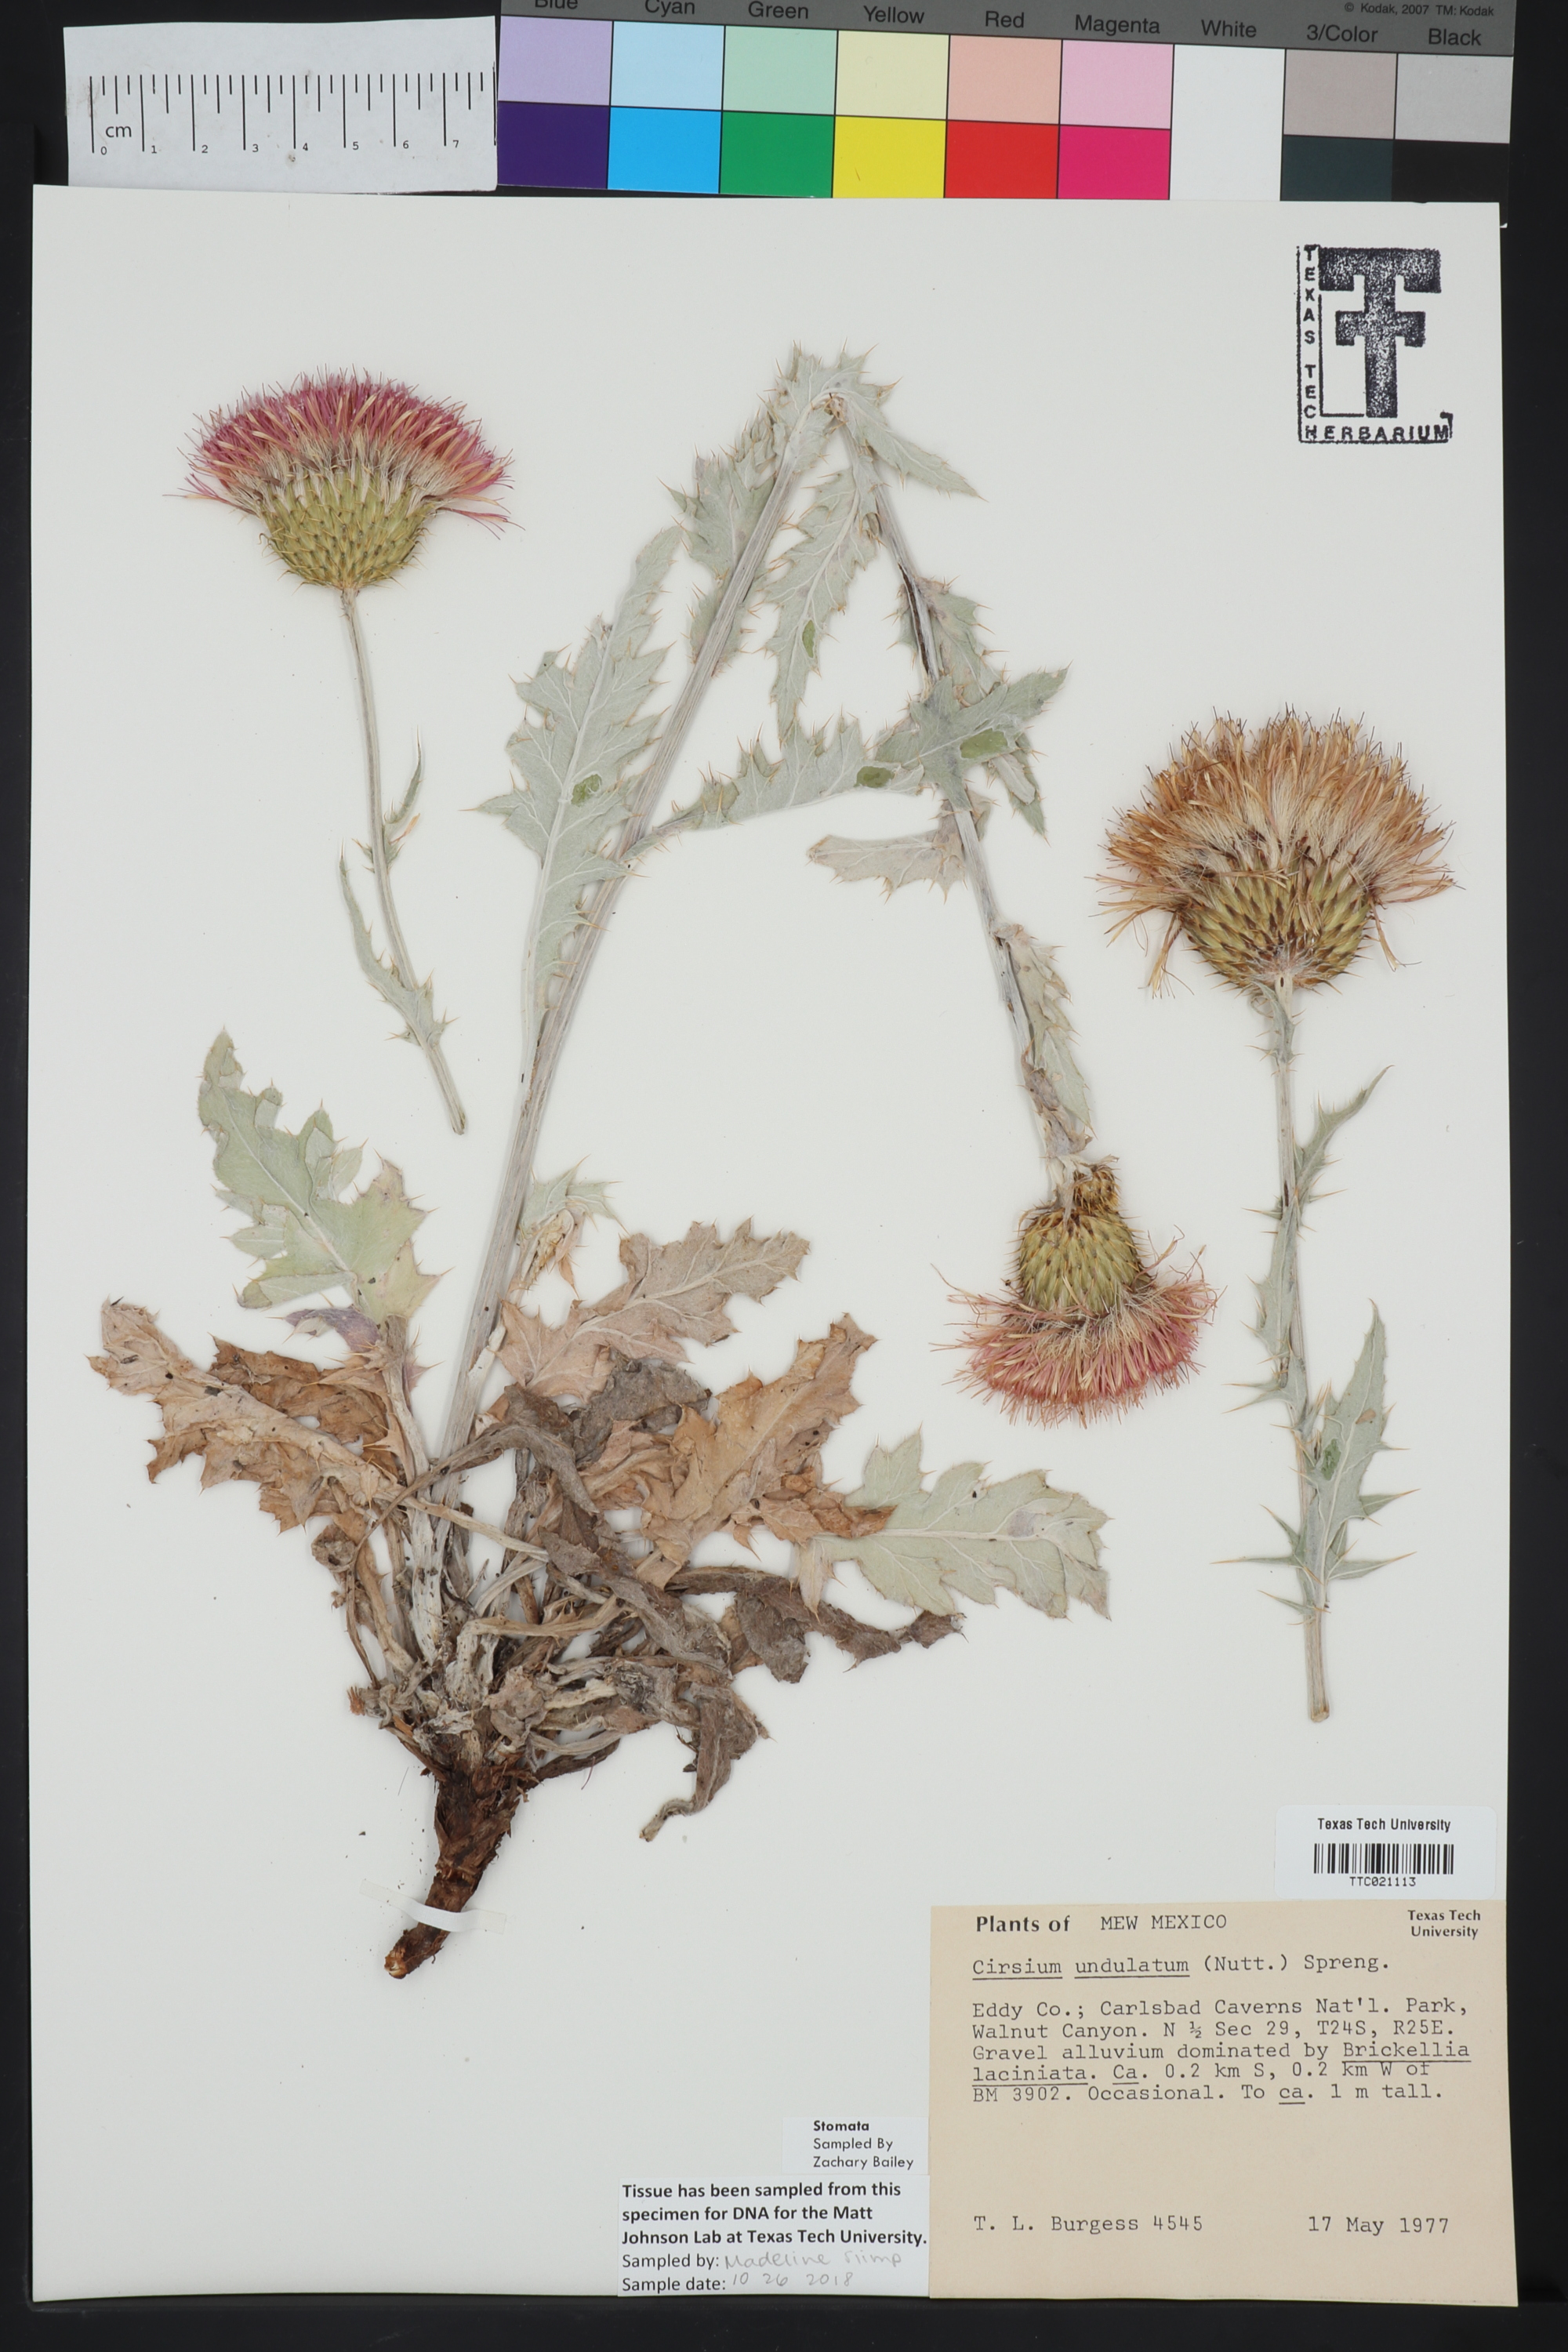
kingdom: Plantae
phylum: Tracheophyta
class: Magnoliopsida
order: Asterales
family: Asteraceae
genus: Cirsium
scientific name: Cirsium undulatum
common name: Pasture thistle
